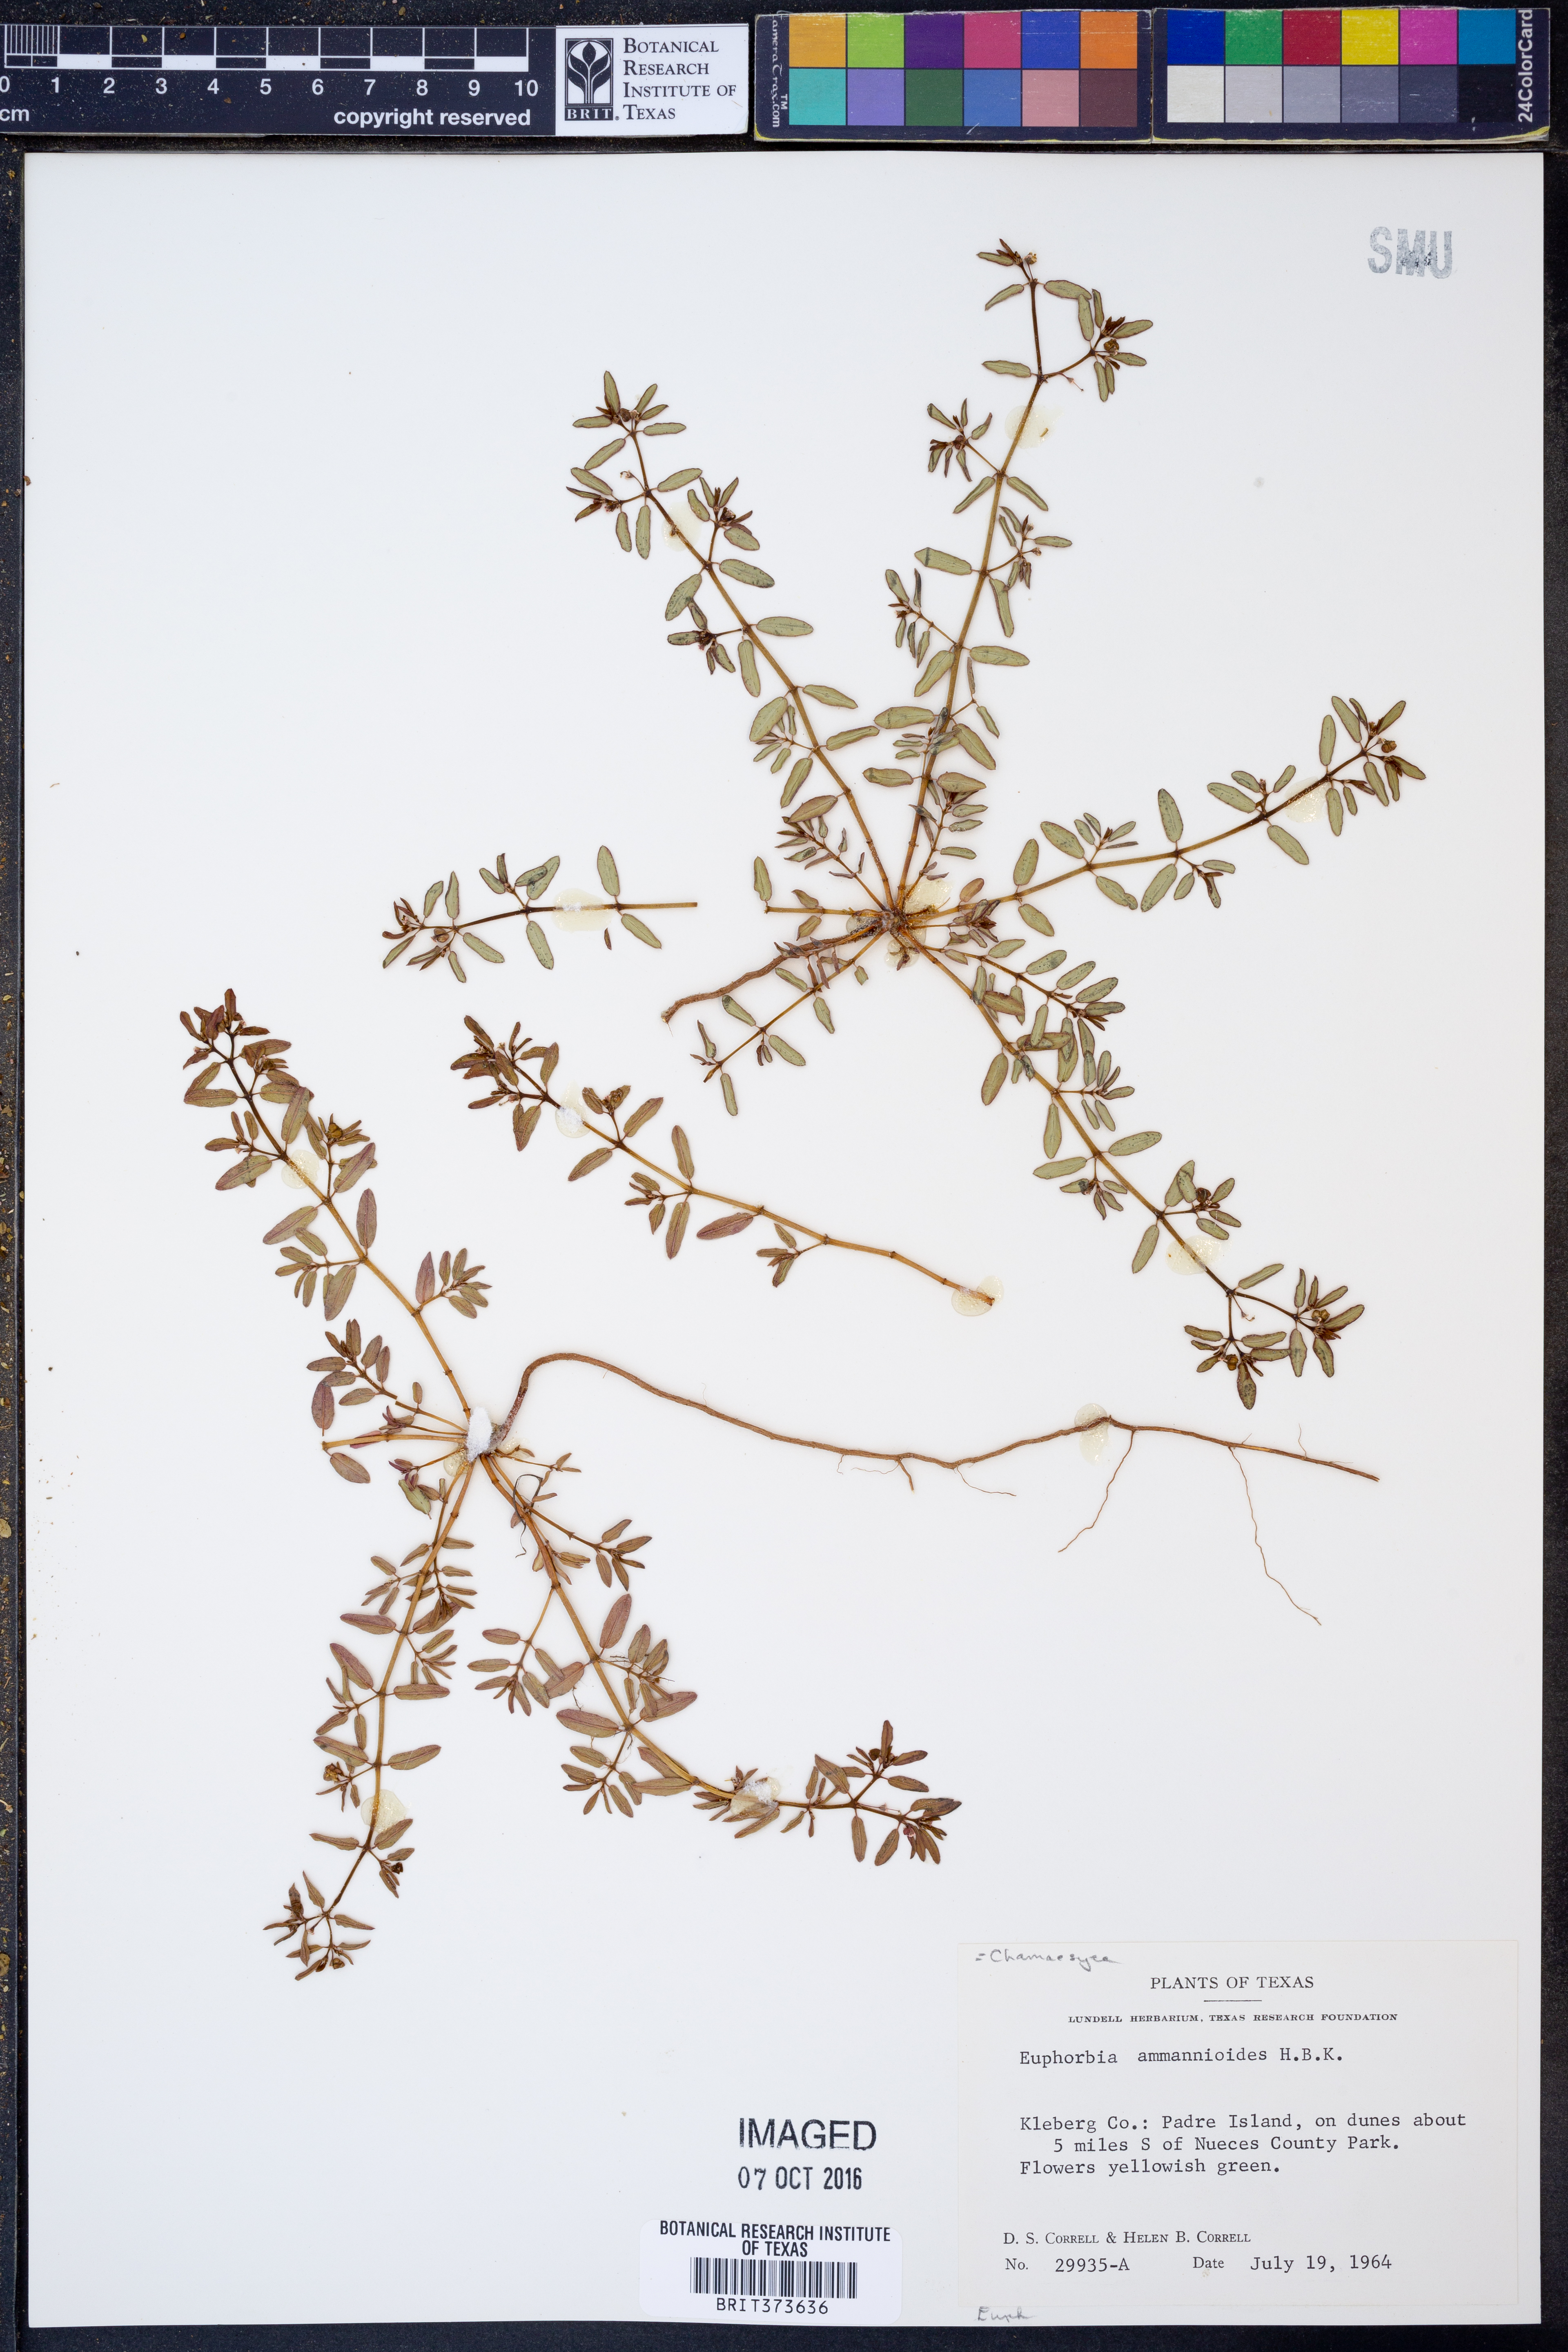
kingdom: Plantae
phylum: Tracheophyta
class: Magnoliopsida
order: Malpighiales
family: Euphorbiaceae
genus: Euphorbia
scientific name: Euphorbia bombensis
